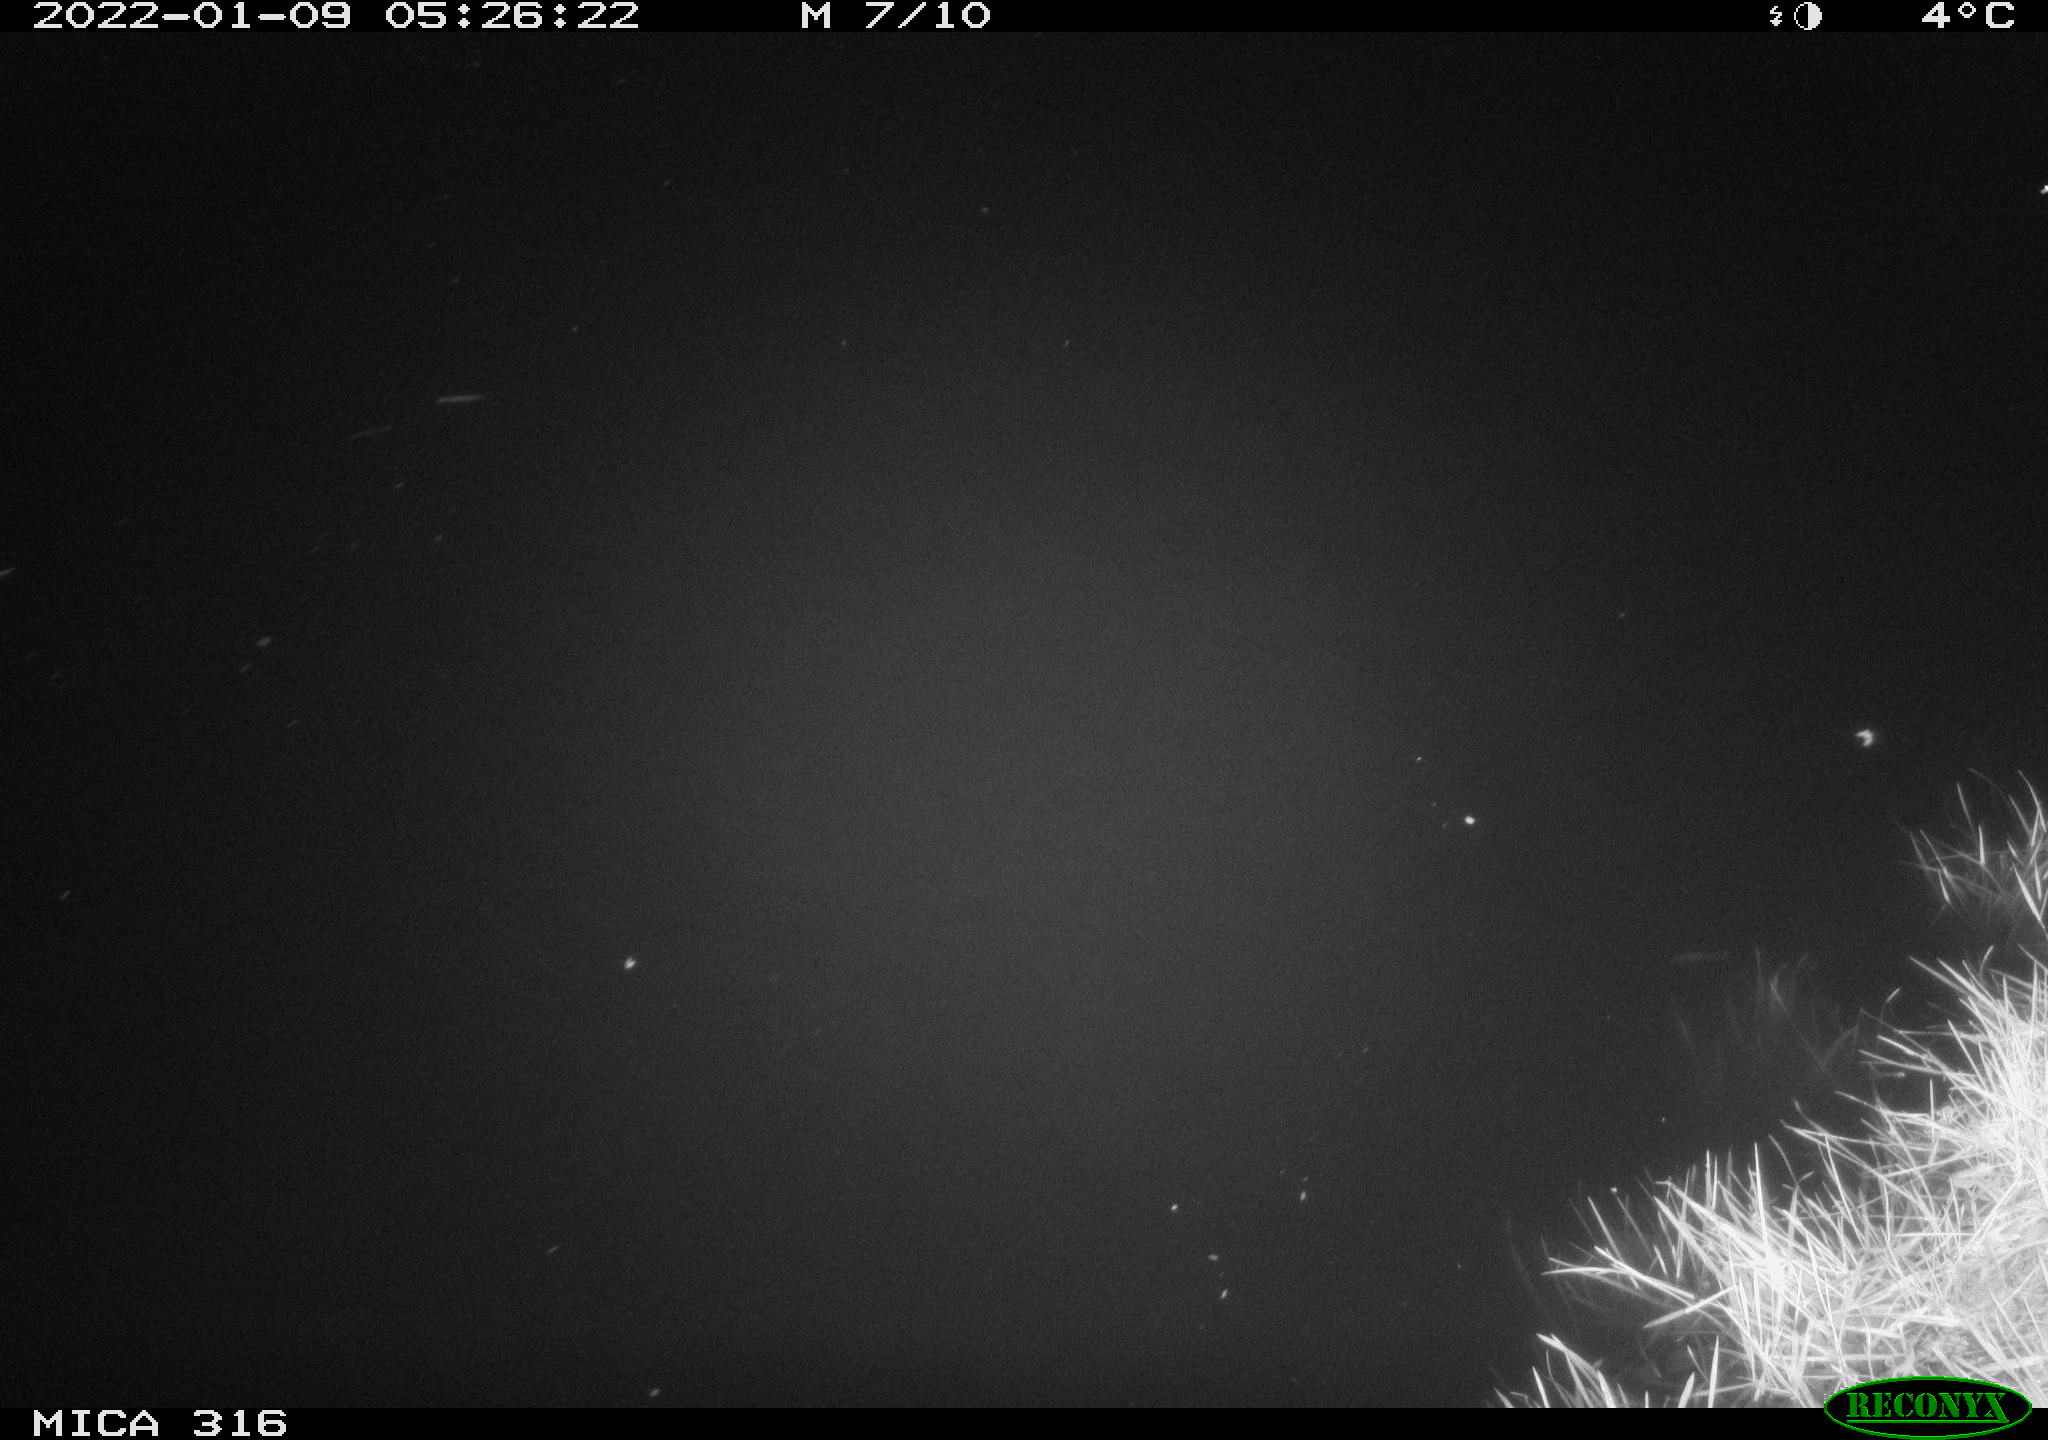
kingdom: Animalia
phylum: Chordata
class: Mammalia
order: Rodentia
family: Muridae
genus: Rattus
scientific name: Rattus norvegicus
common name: Brown rat
